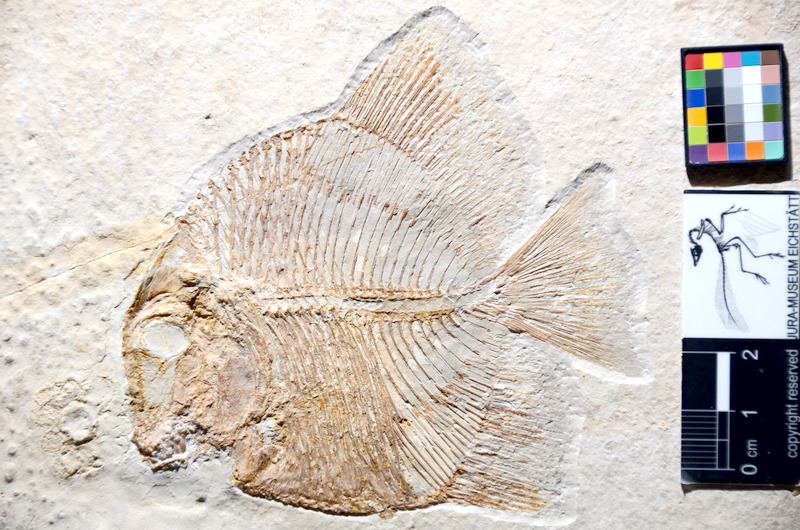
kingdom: Animalia
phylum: Chordata
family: Pycnodontidae
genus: Turbomesodon
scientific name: Turbomesodon relegans
